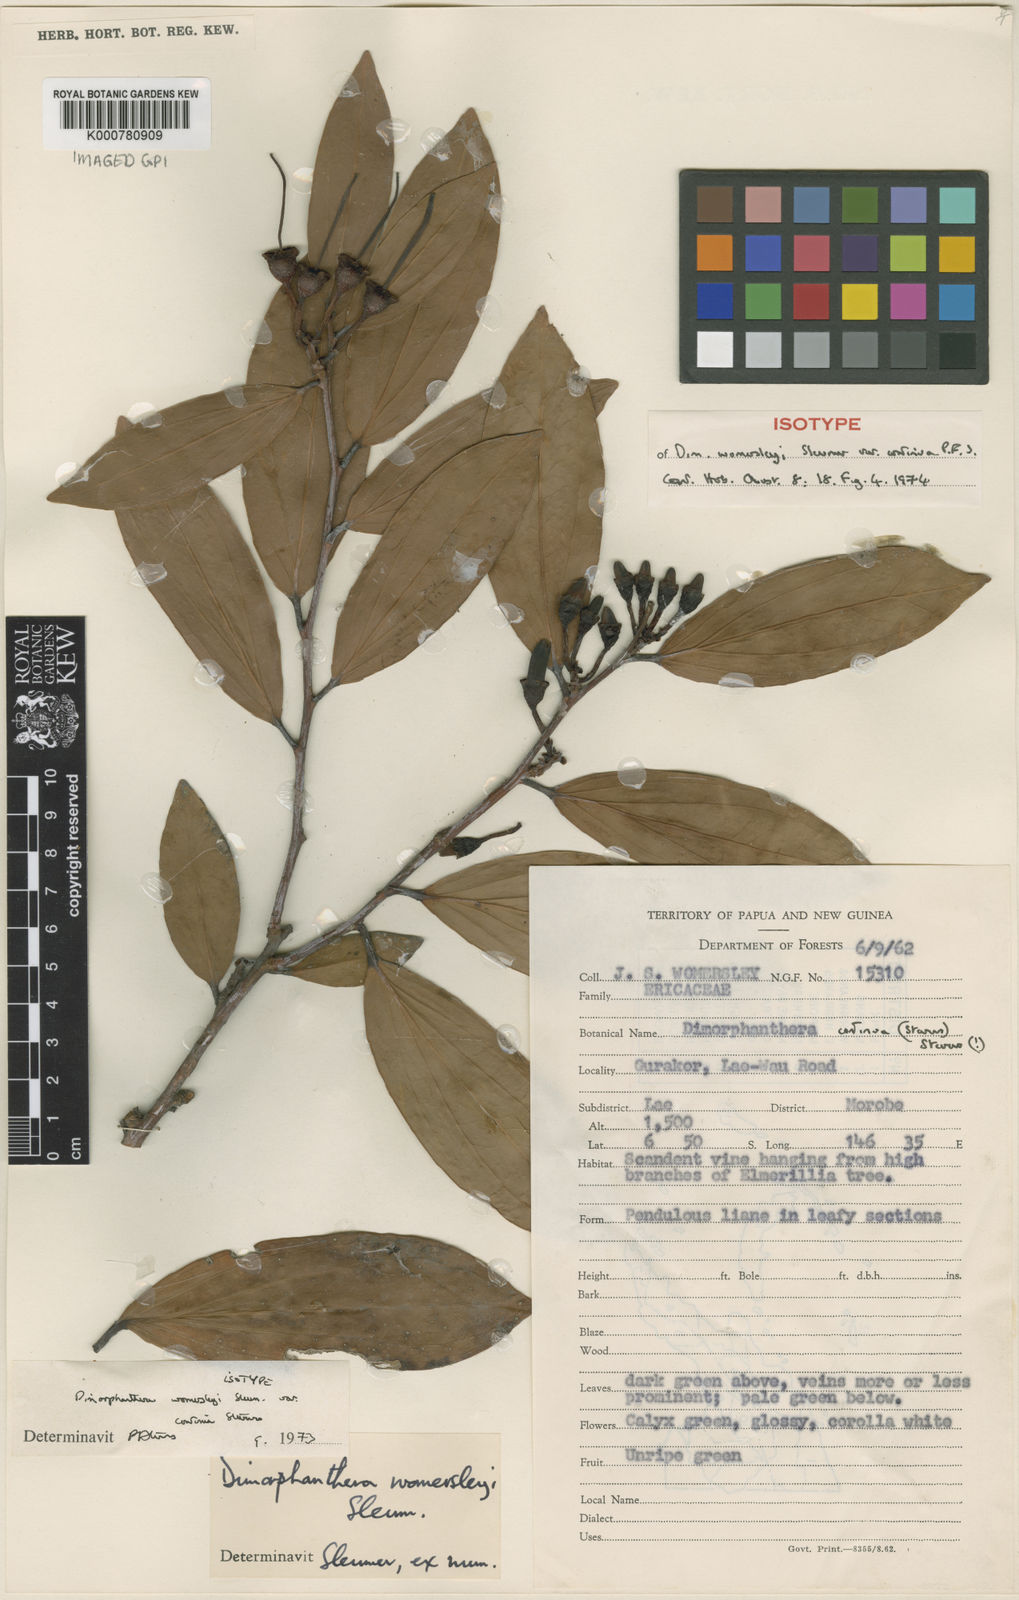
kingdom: Plantae
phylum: Tracheophyta
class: Magnoliopsida
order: Ericales
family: Ericaceae
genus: Dimorphanthera
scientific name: Dimorphanthera continua
